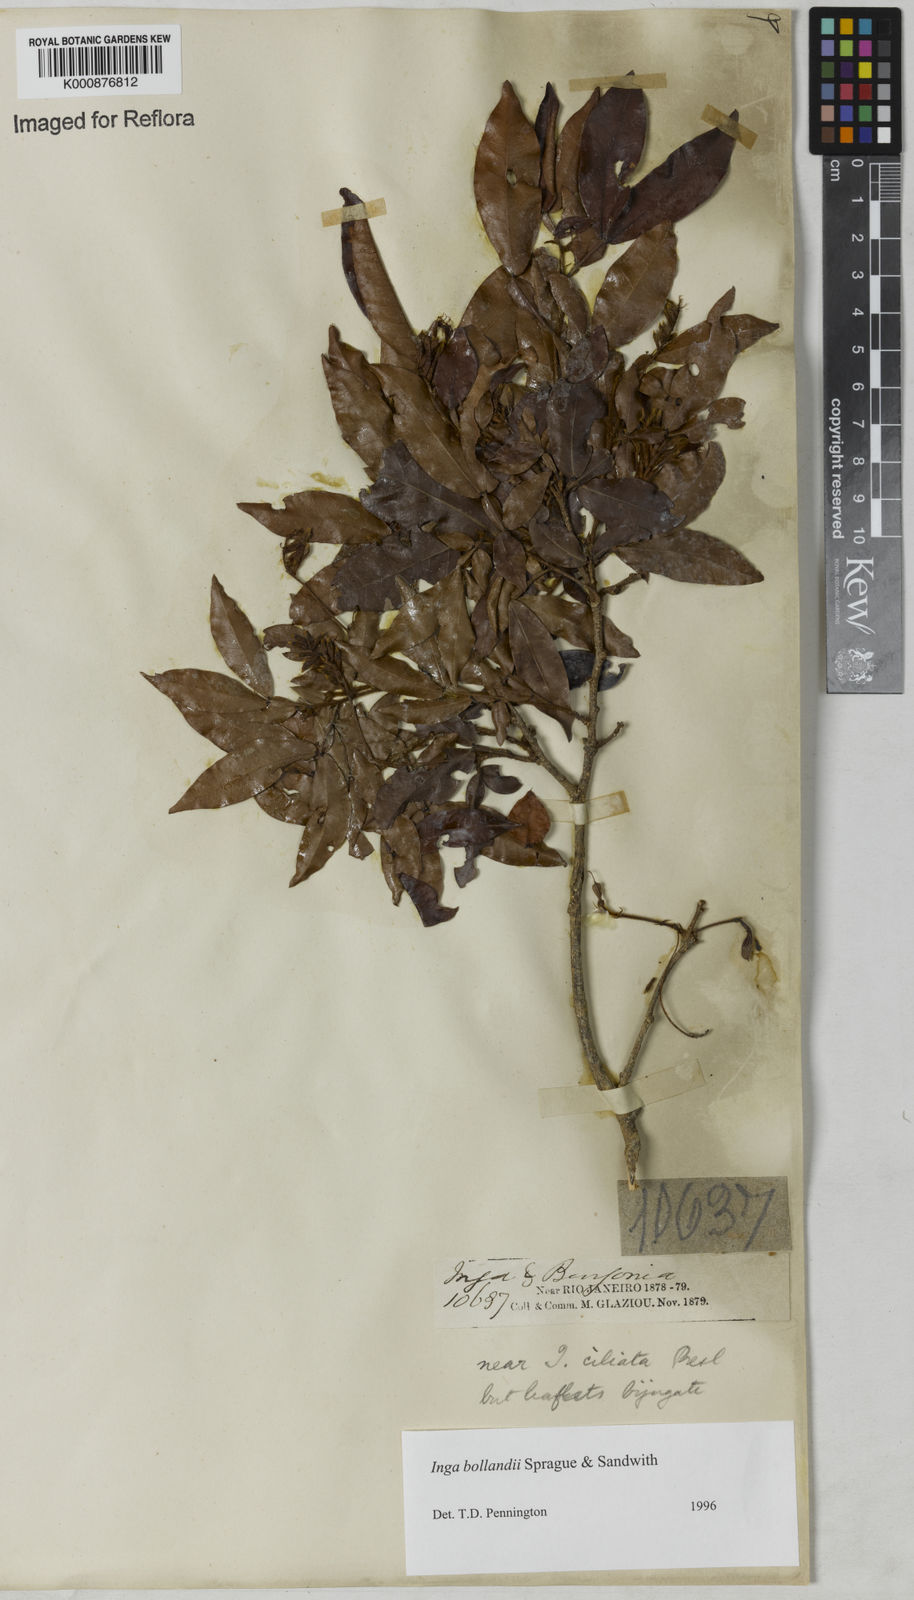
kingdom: Plantae
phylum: Tracheophyta
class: Magnoliopsida
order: Fabales
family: Fabaceae
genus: Inga
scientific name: Inga bollandii
